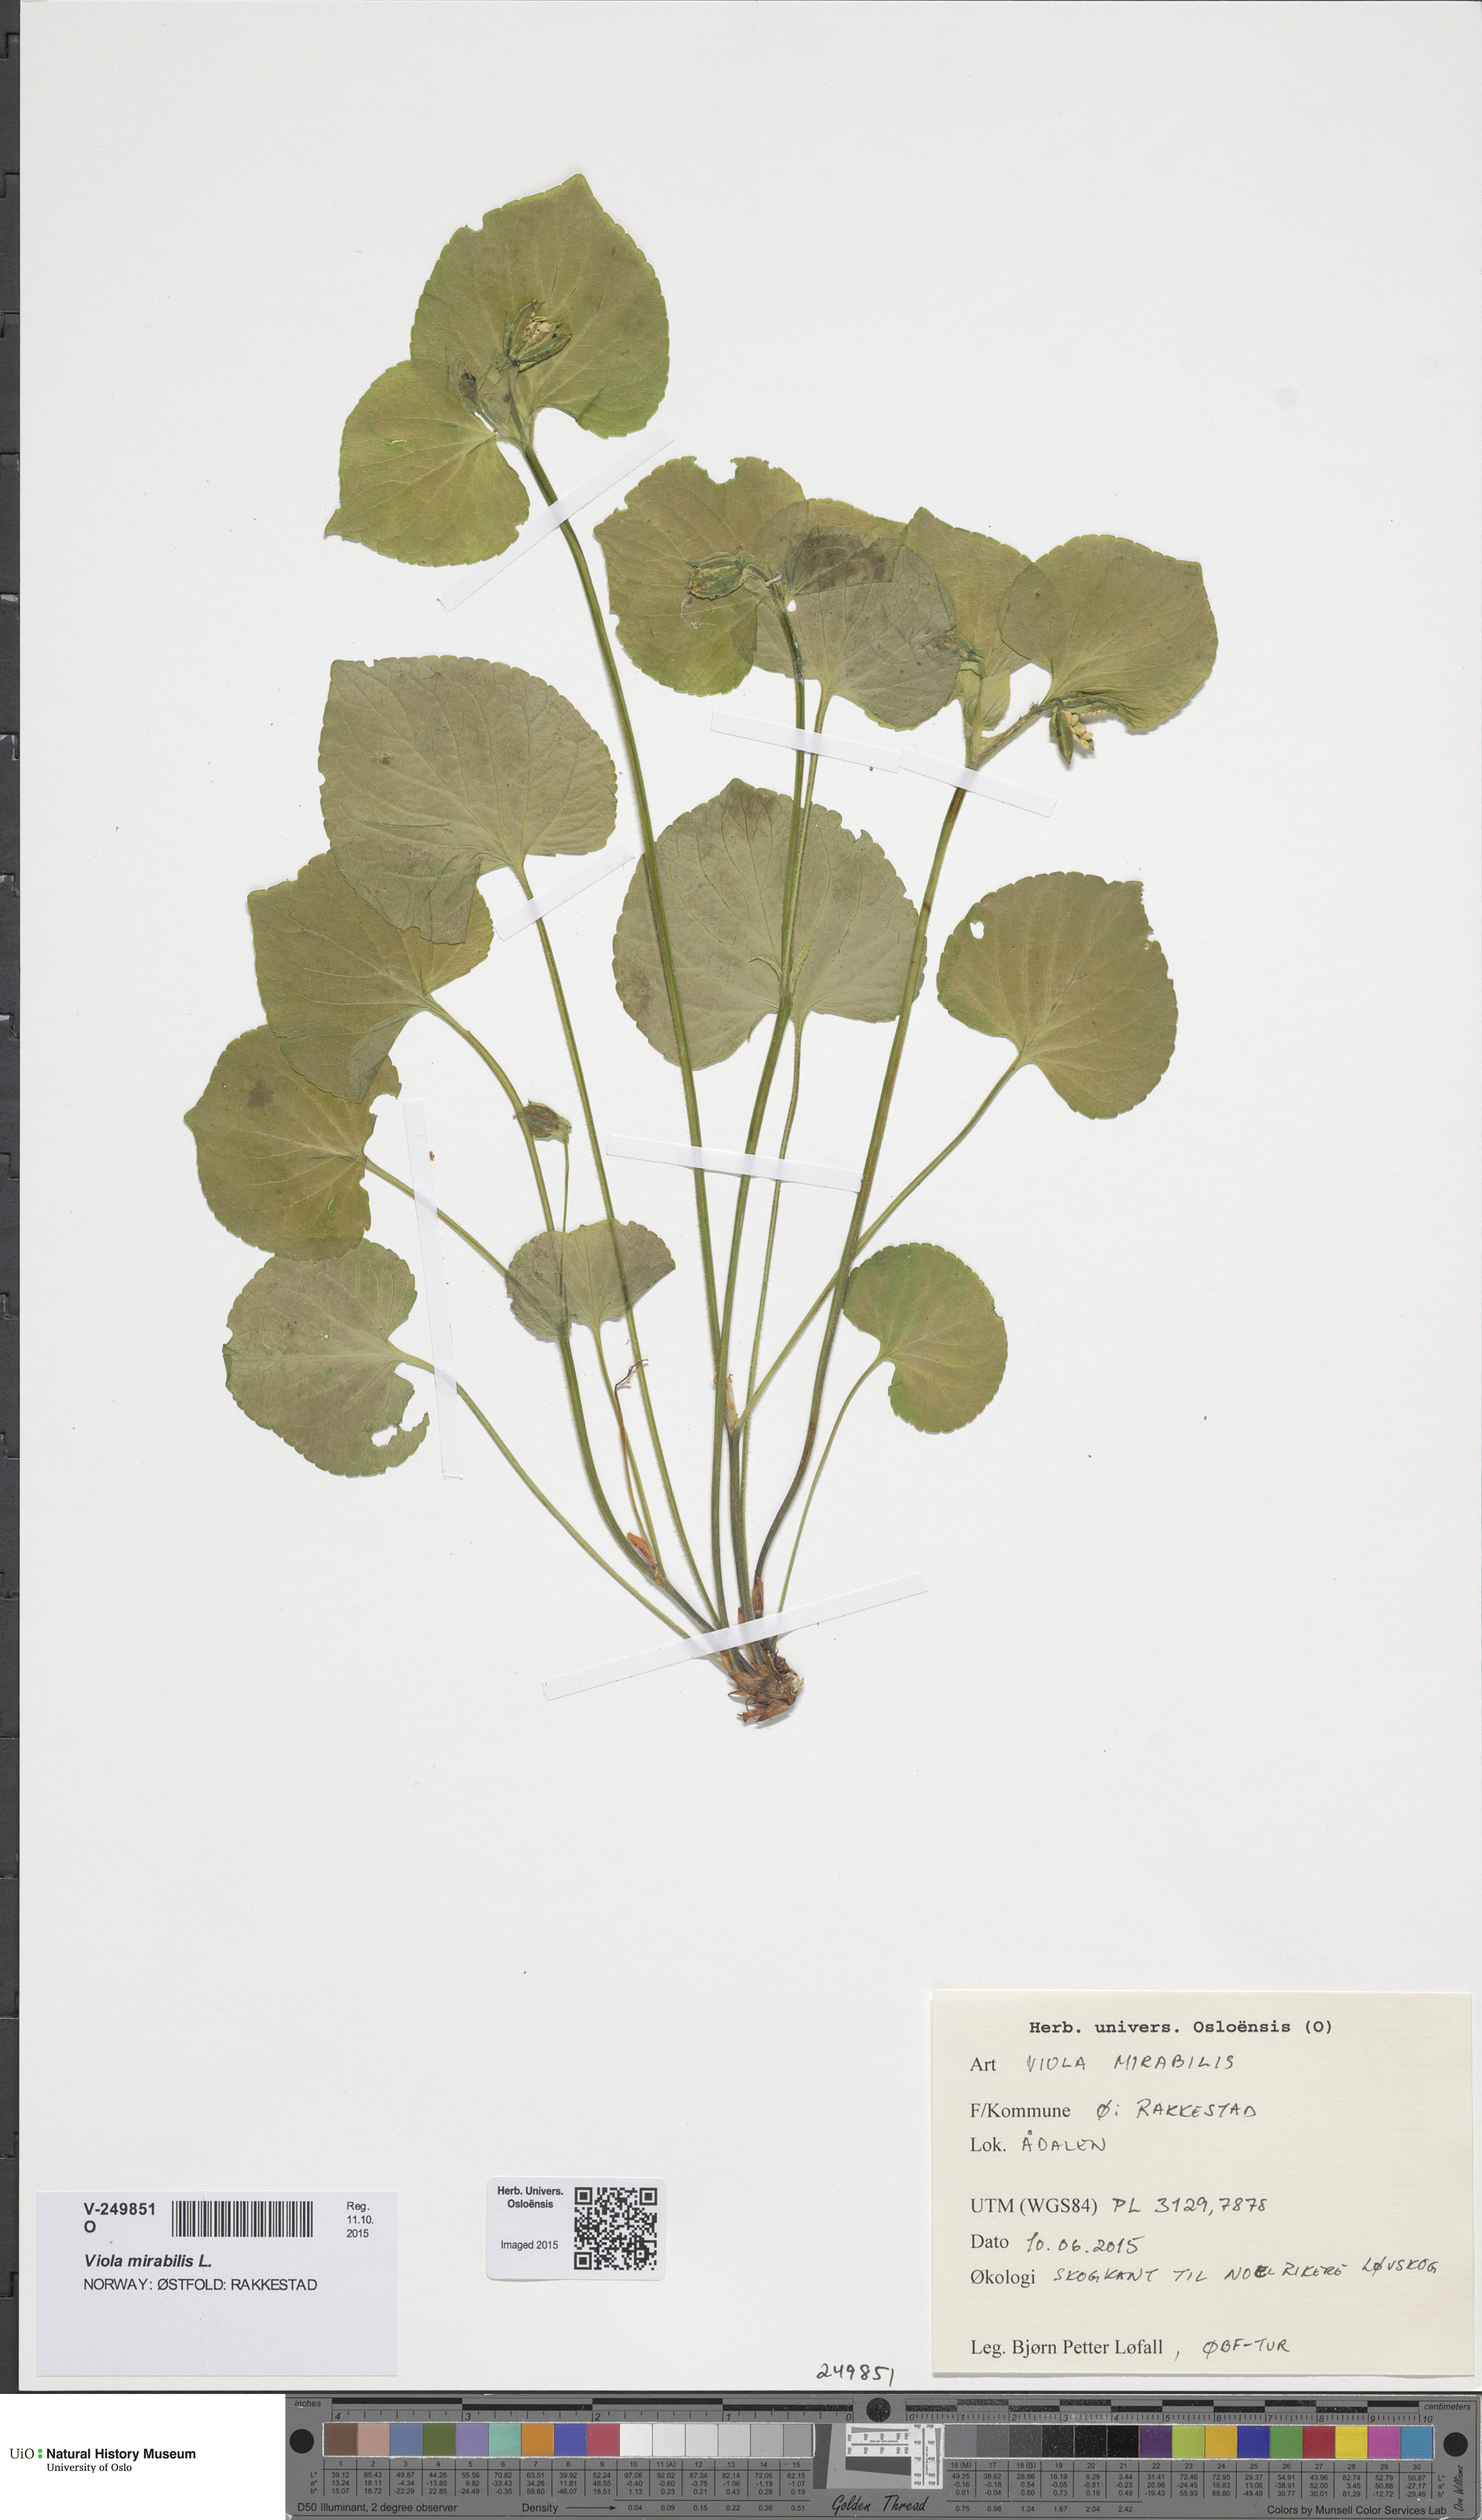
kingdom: Plantae
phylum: Tracheophyta
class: Magnoliopsida
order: Malpighiales
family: Violaceae
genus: Viola
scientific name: Viola mirabilis
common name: Wonder violet
